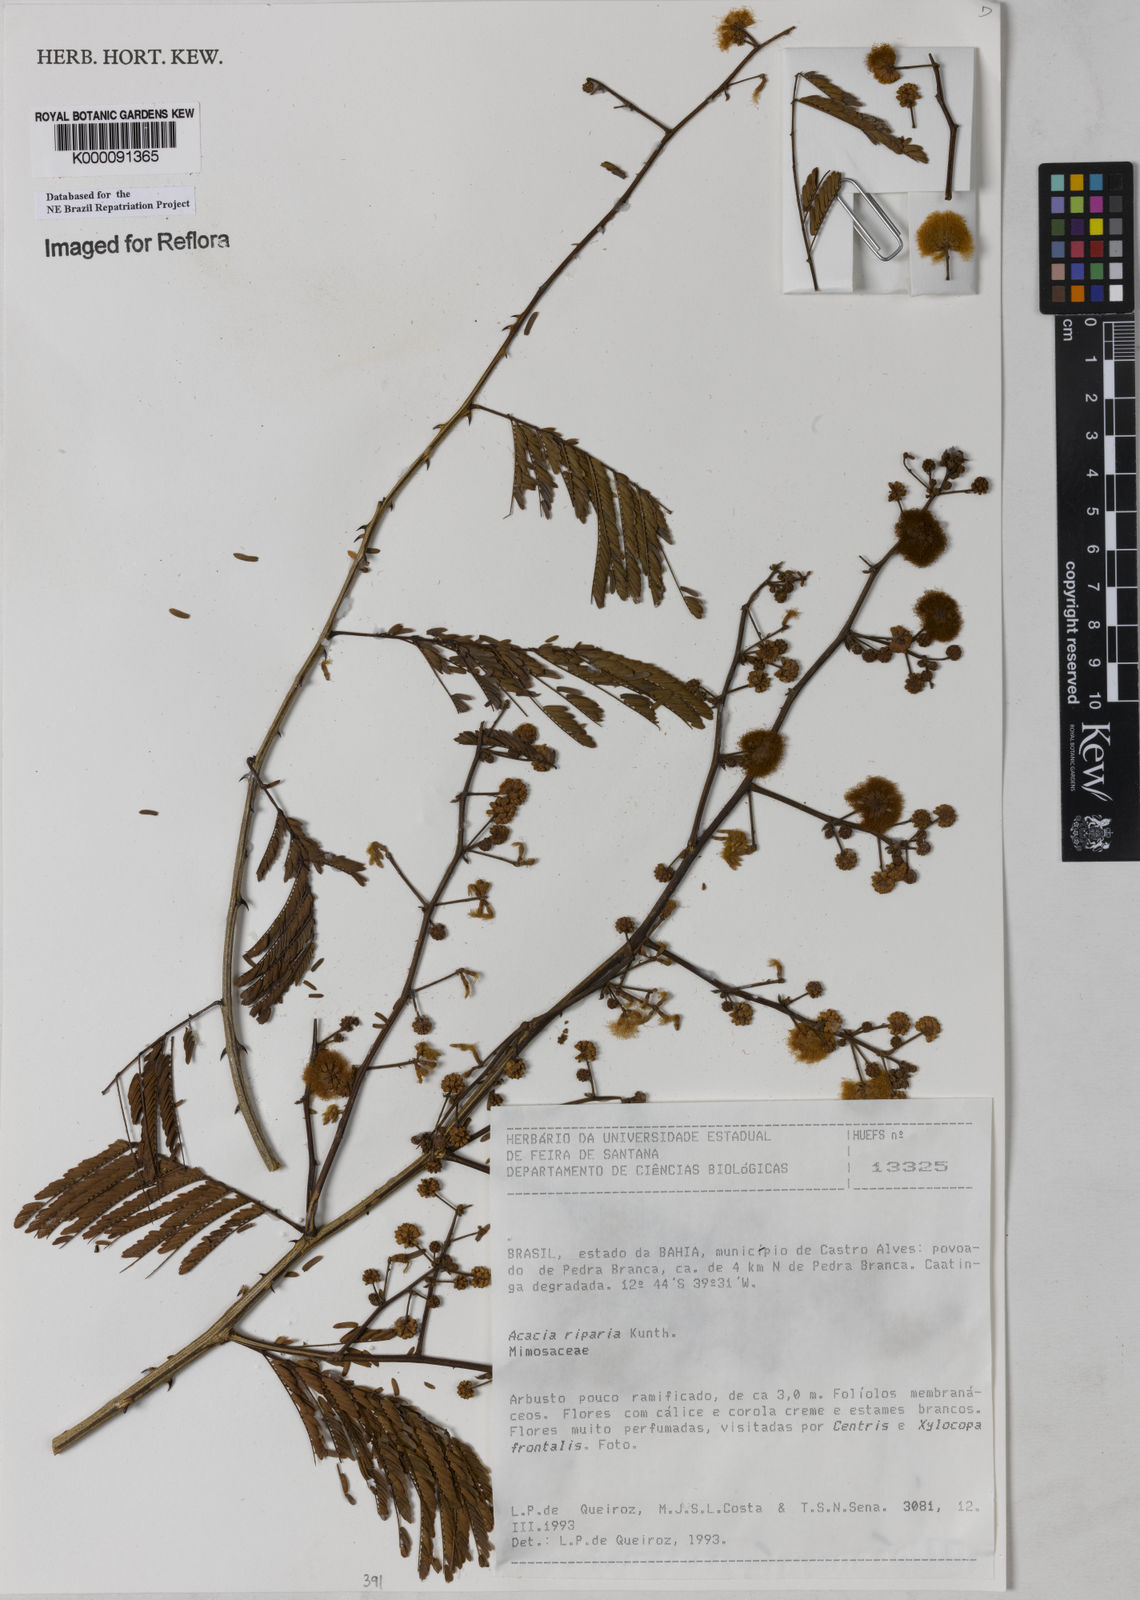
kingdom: Plantae
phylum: Tracheophyta
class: Magnoliopsida
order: Fabales
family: Fabaceae
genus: Senegalia
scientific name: Senegalia riparia
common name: Catch-and-keep
